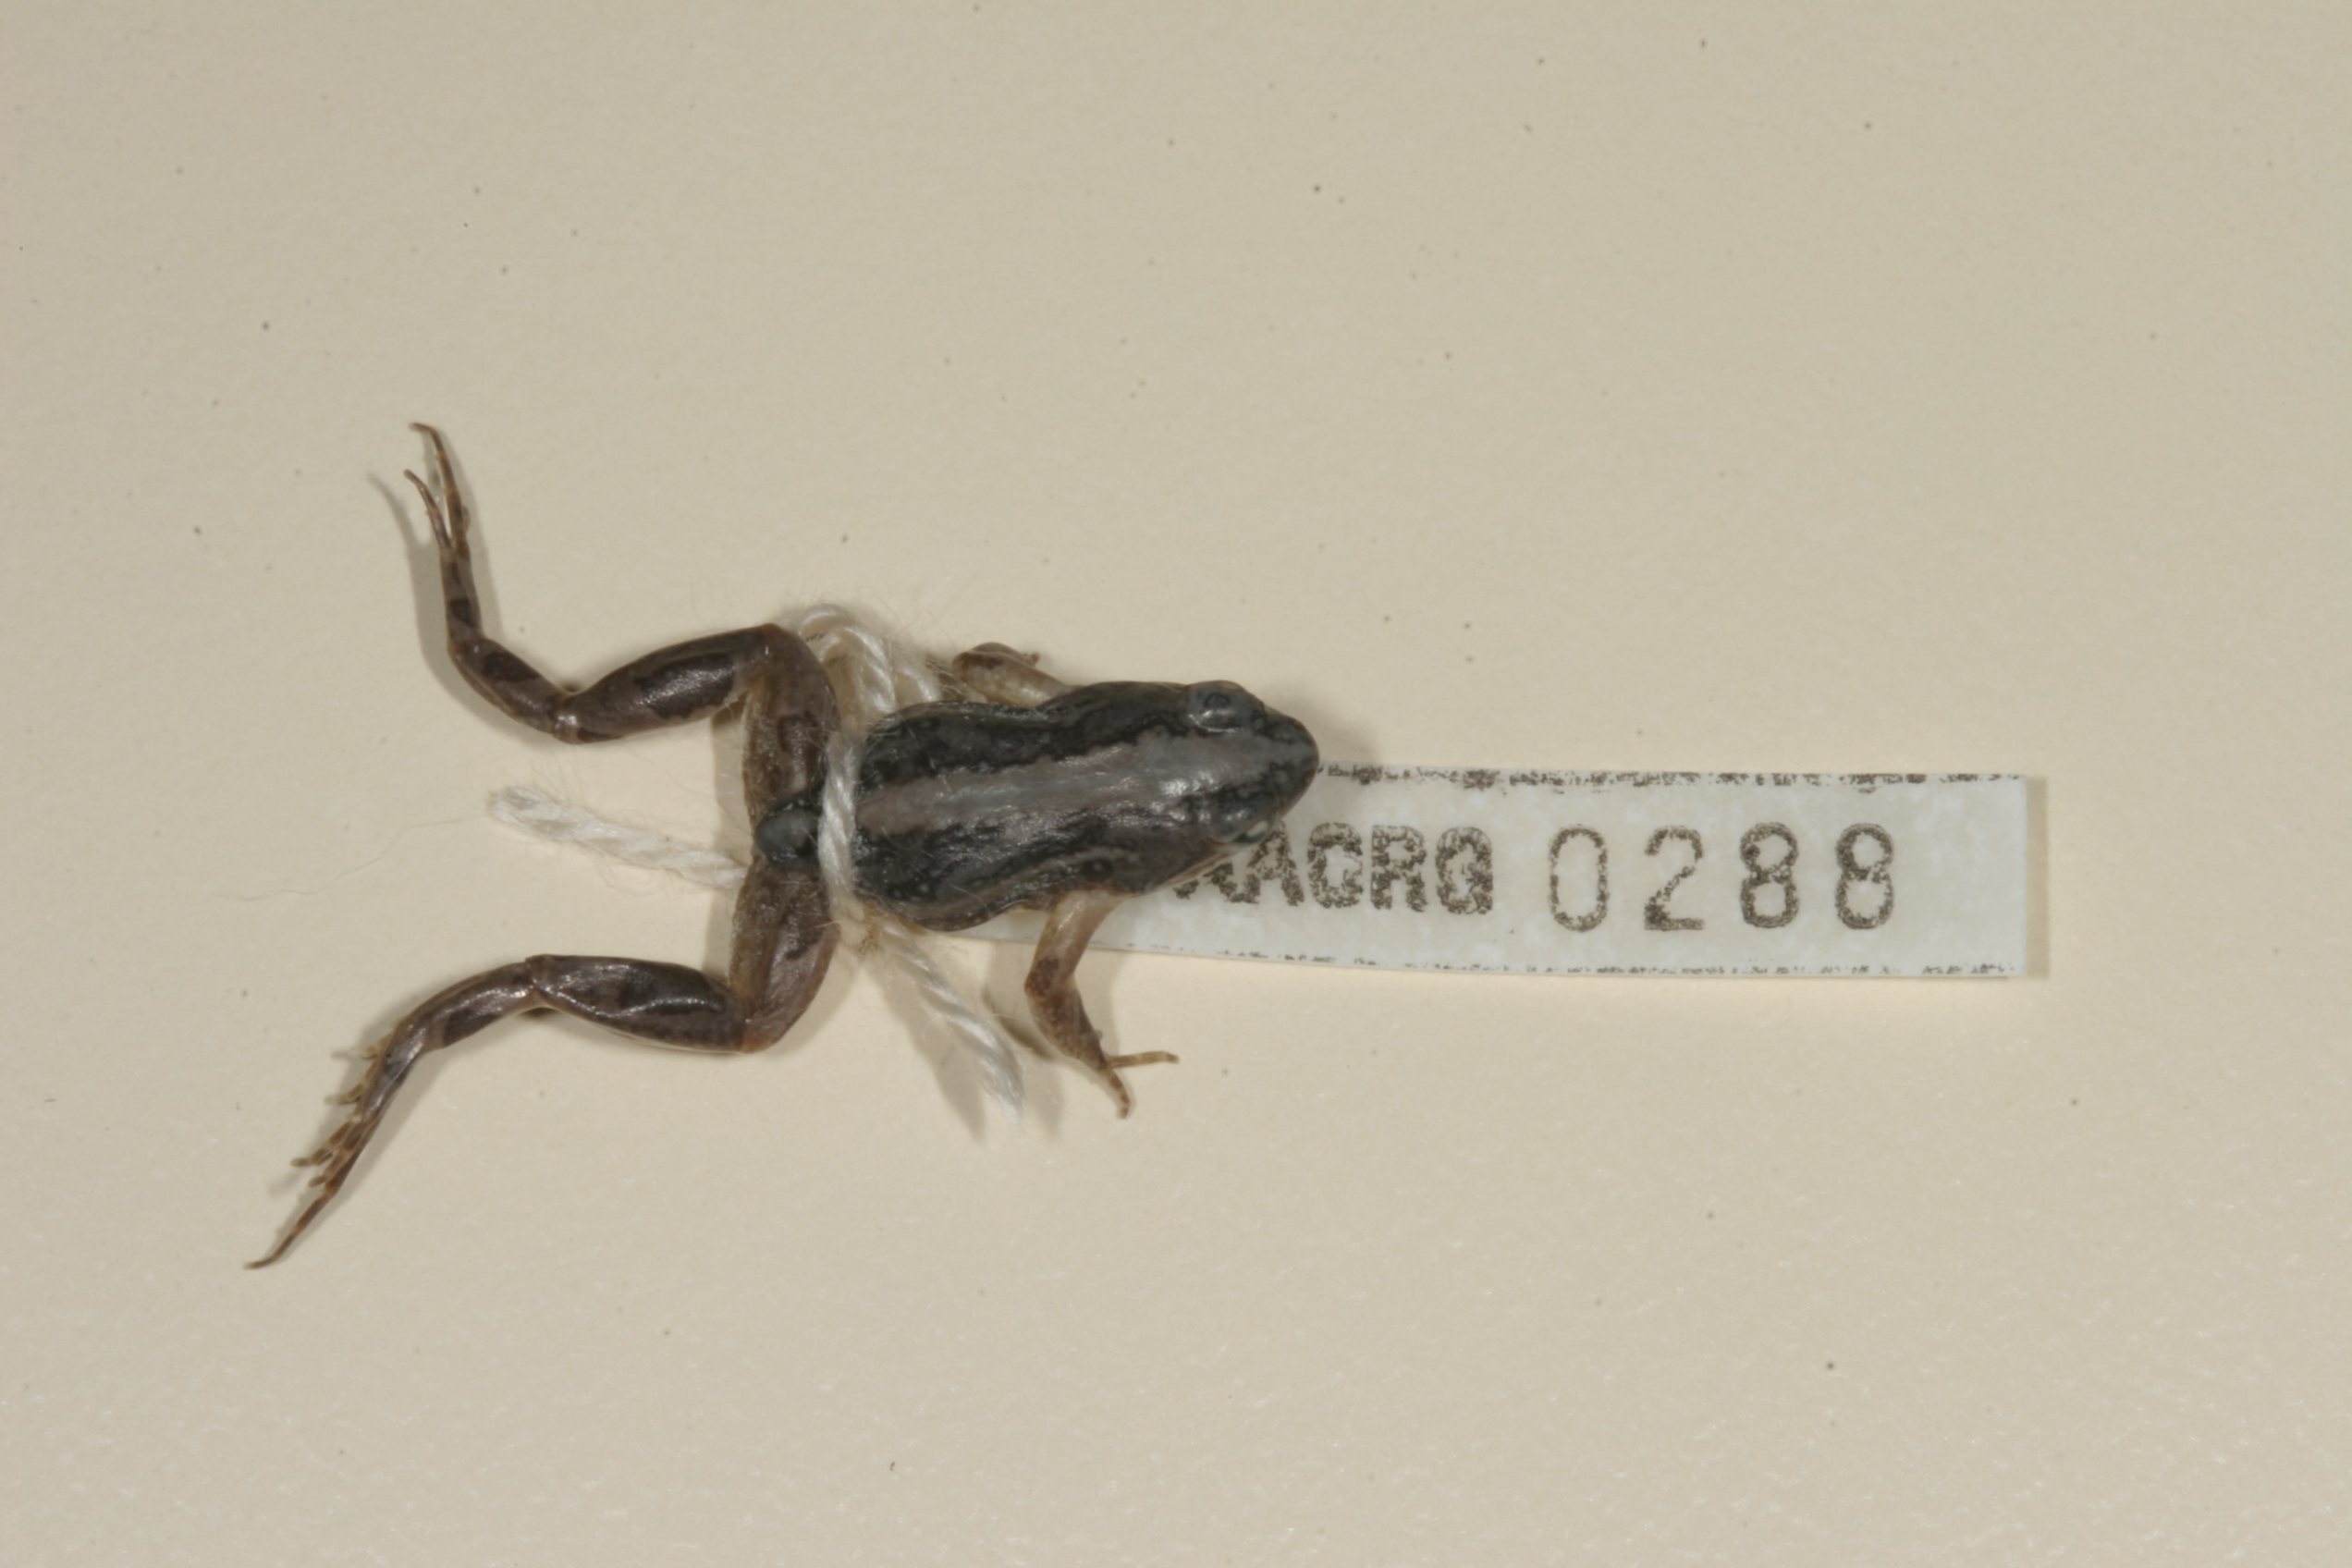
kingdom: Animalia
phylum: Chordata
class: Amphibia
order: Anura
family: Pyxicephalidae
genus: Cacosternum
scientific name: Cacosternum boettgeri
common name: Boettger's frog
